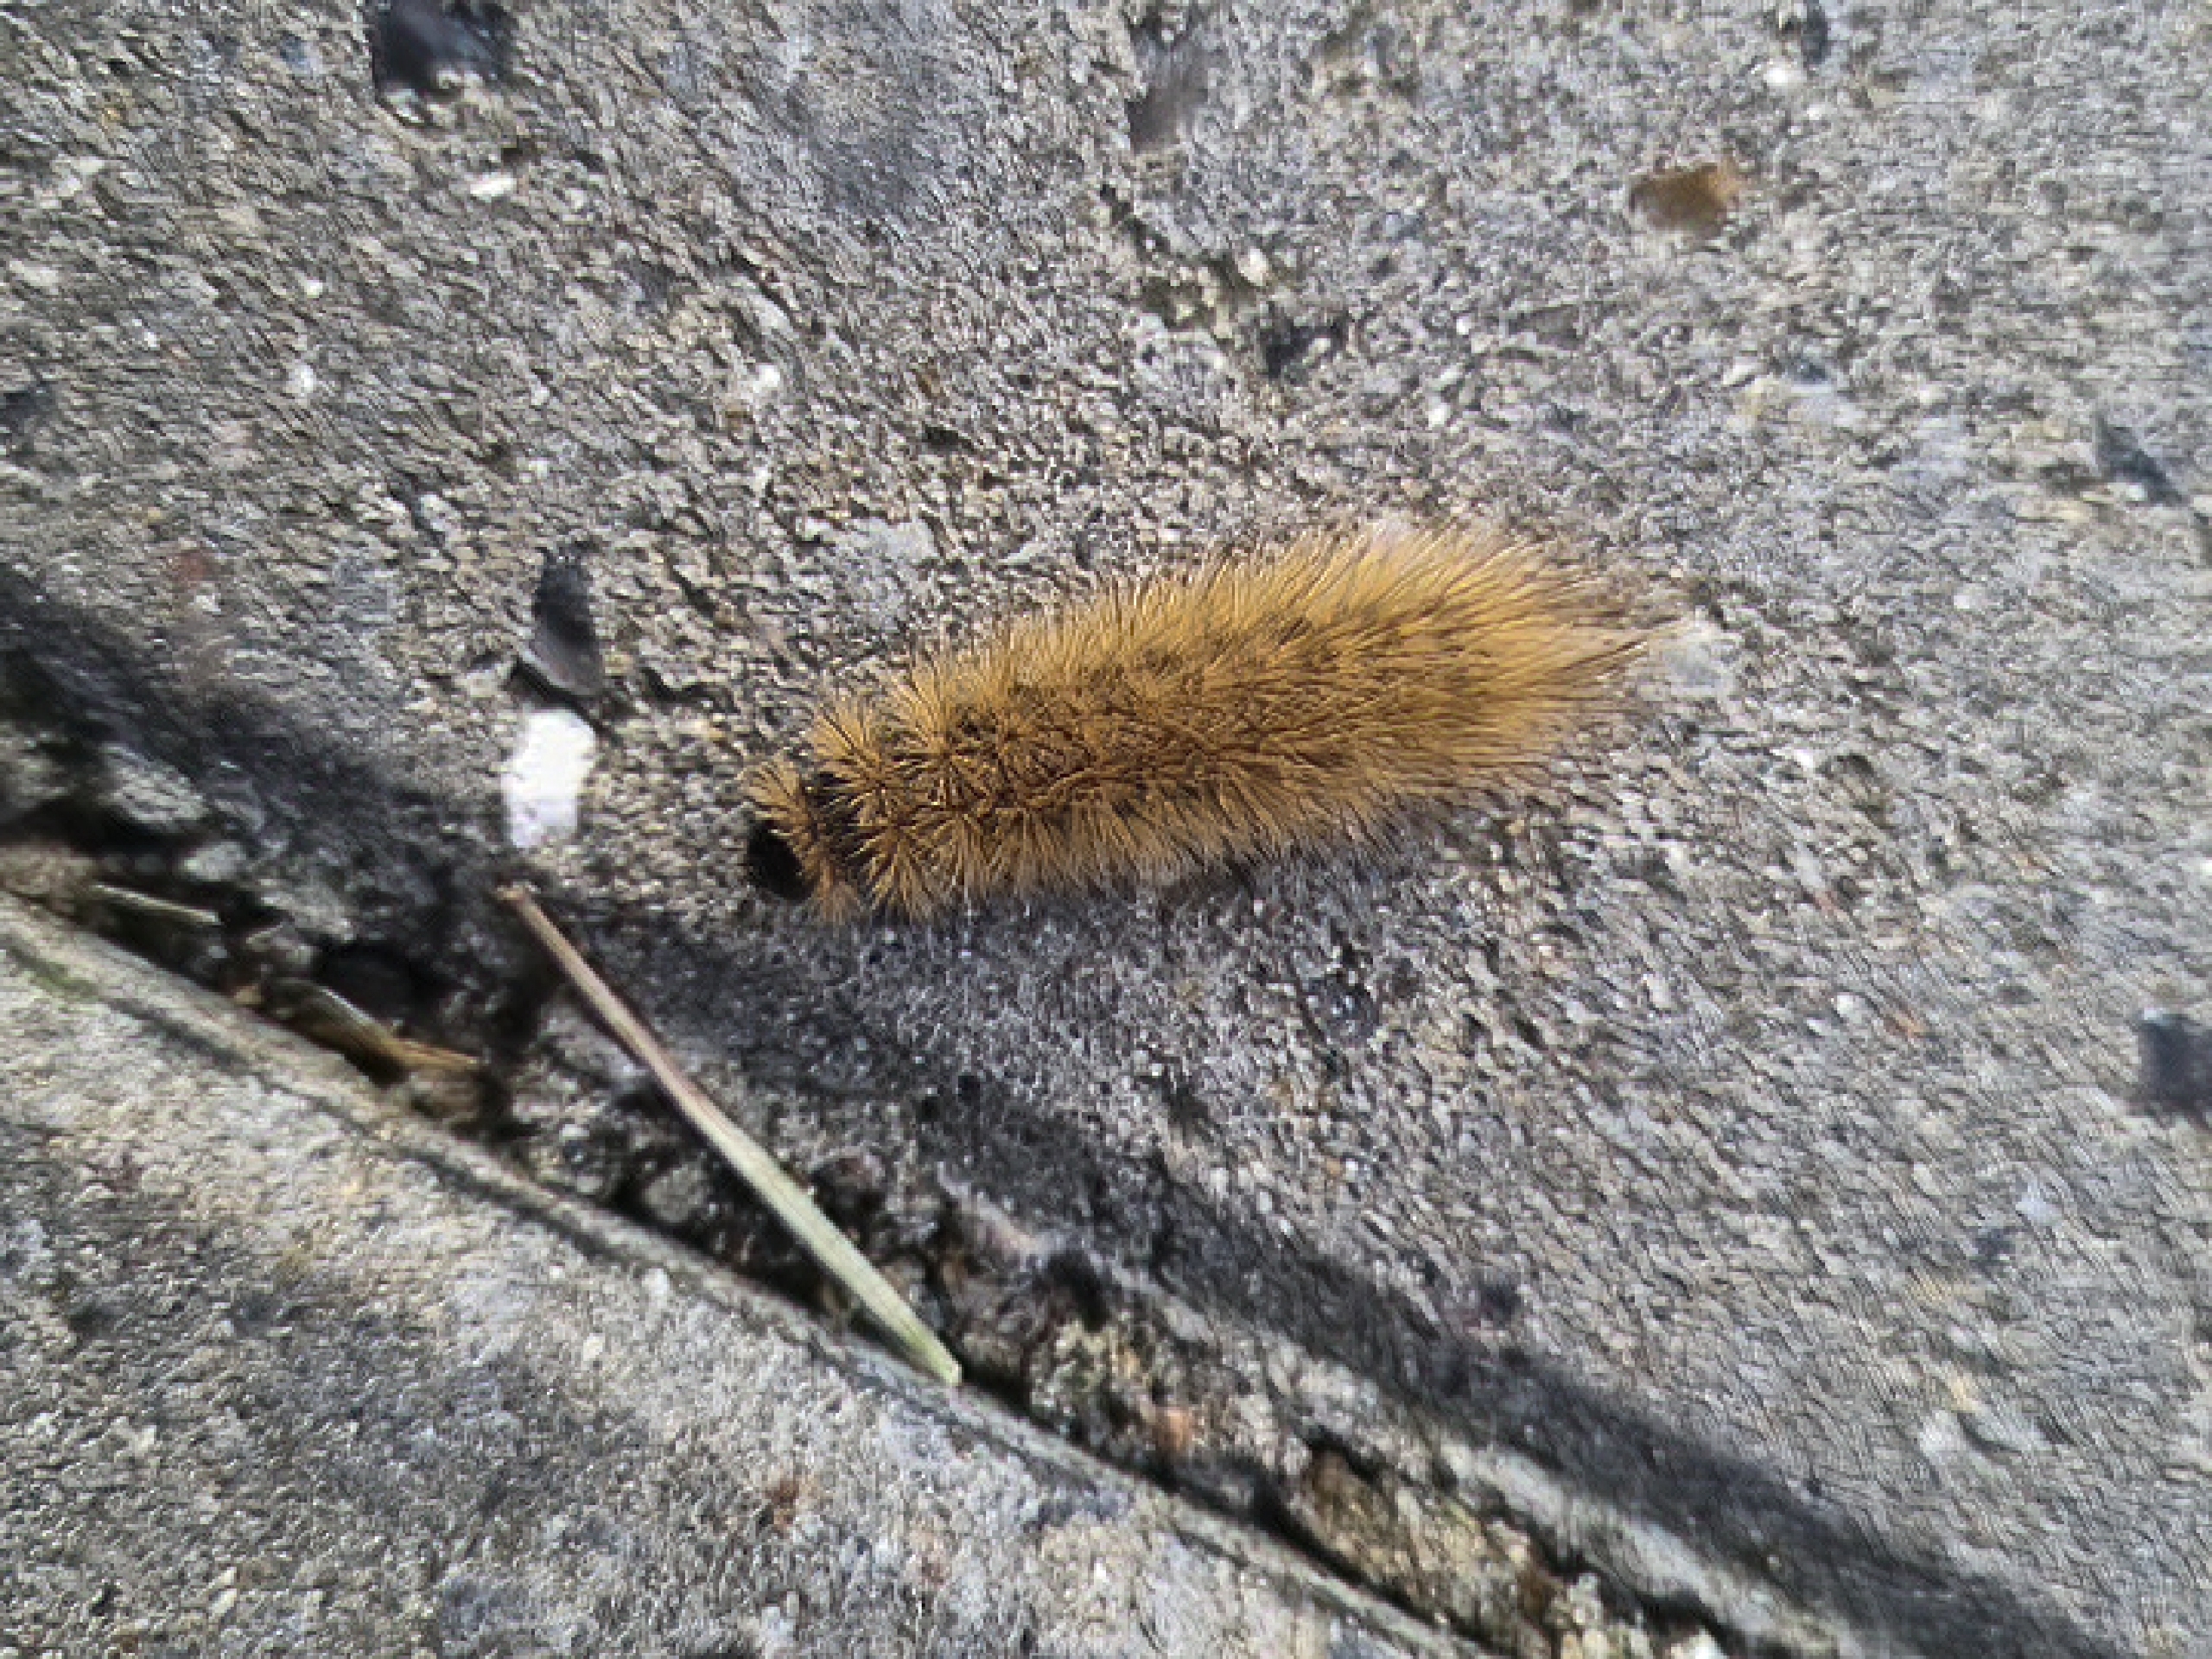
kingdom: Animalia
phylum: Arthropoda
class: Insecta
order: Lepidoptera
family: Erebidae
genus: Phragmatobia
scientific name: Phragmatobia fuliginosa
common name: Kanelbjørn
